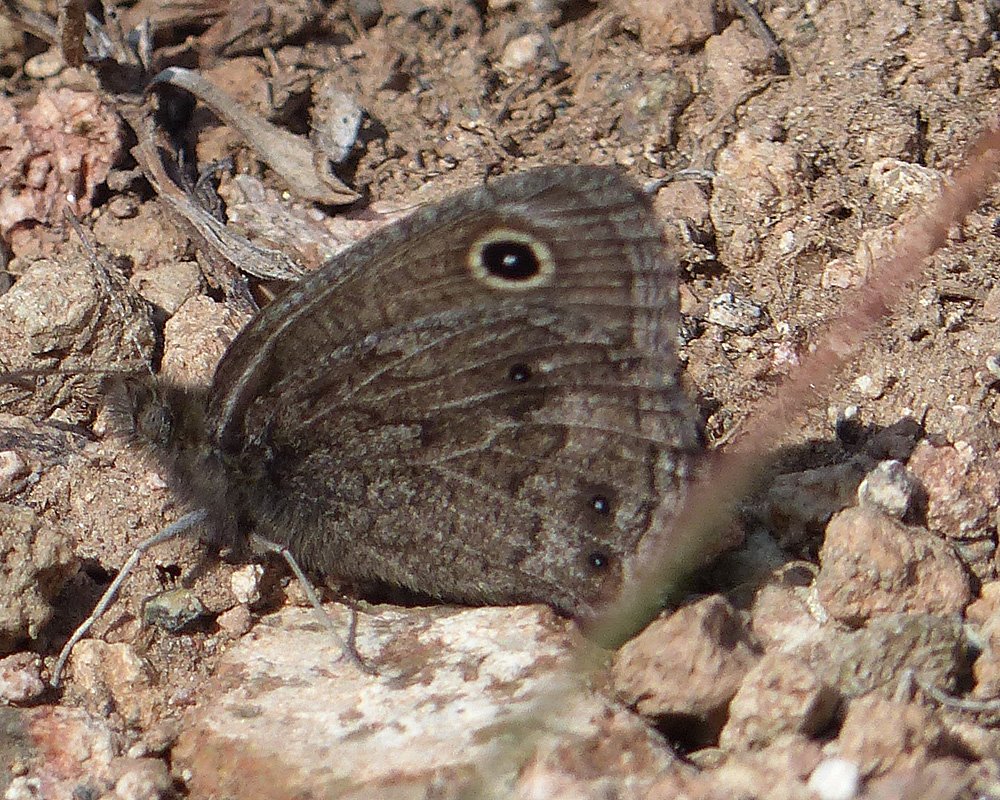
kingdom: Animalia
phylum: Arthropoda
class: Insecta
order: Lepidoptera
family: Nymphalidae
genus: Cercyonis
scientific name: Cercyonis oetus
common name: Small Wood-Nymph
